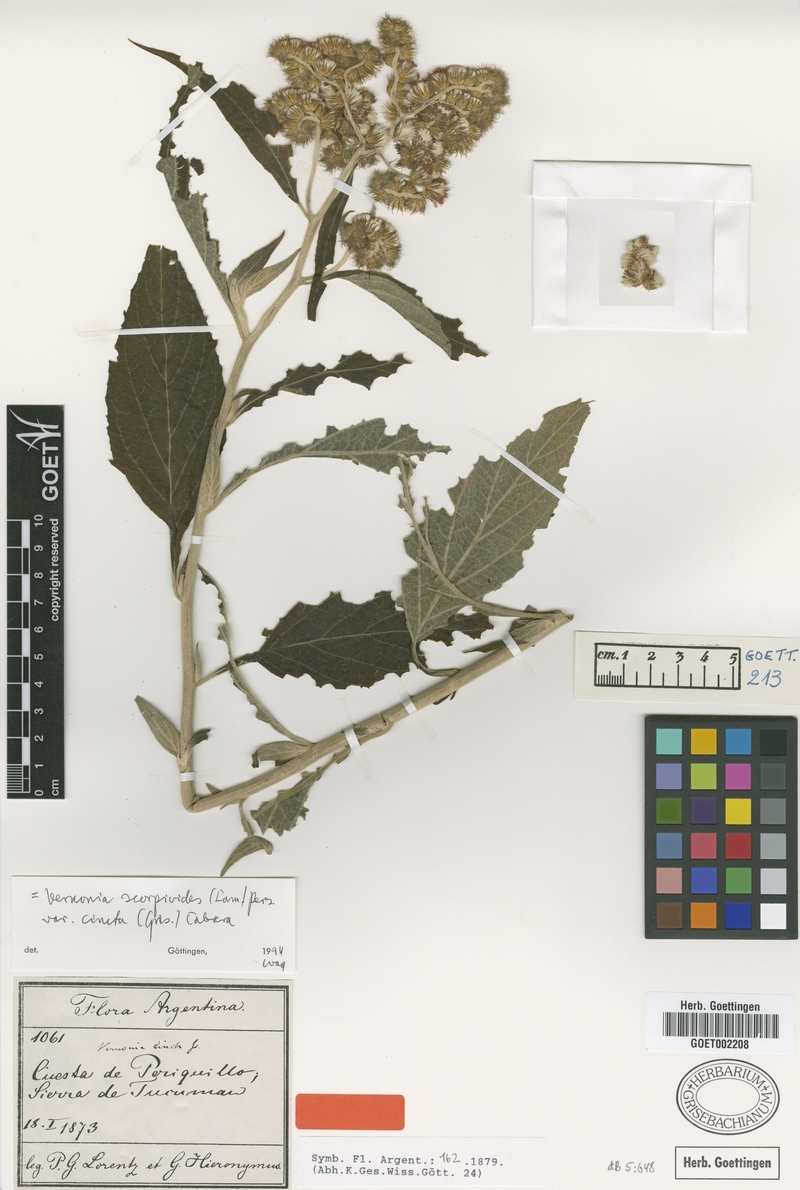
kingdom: Plantae
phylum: Tracheophyta
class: Magnoliopsida
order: Asterales
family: Asteraceae
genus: Cyrtocymura
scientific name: Cyrtocymura cincta
